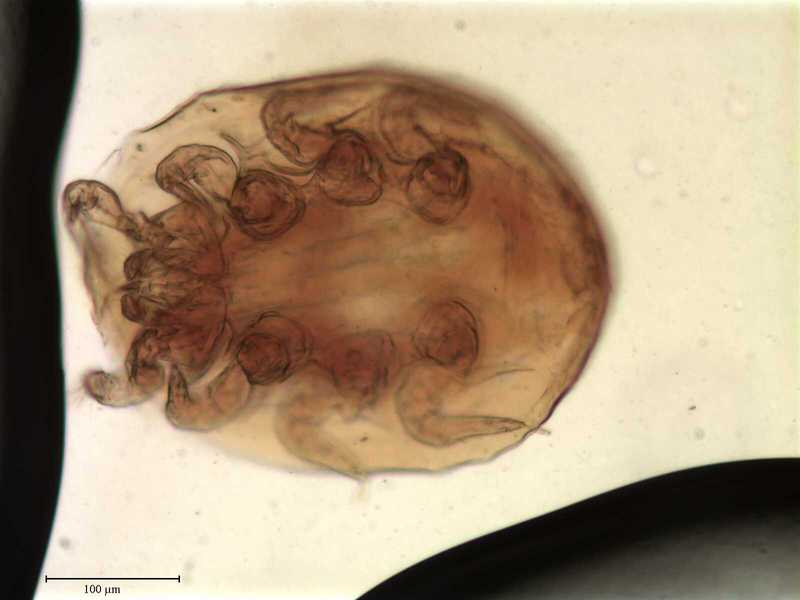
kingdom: Animalia
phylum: Arthropoda
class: Arachnida
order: Mesostigmata
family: Uropodidae
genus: Uropoda
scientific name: Uropoda
